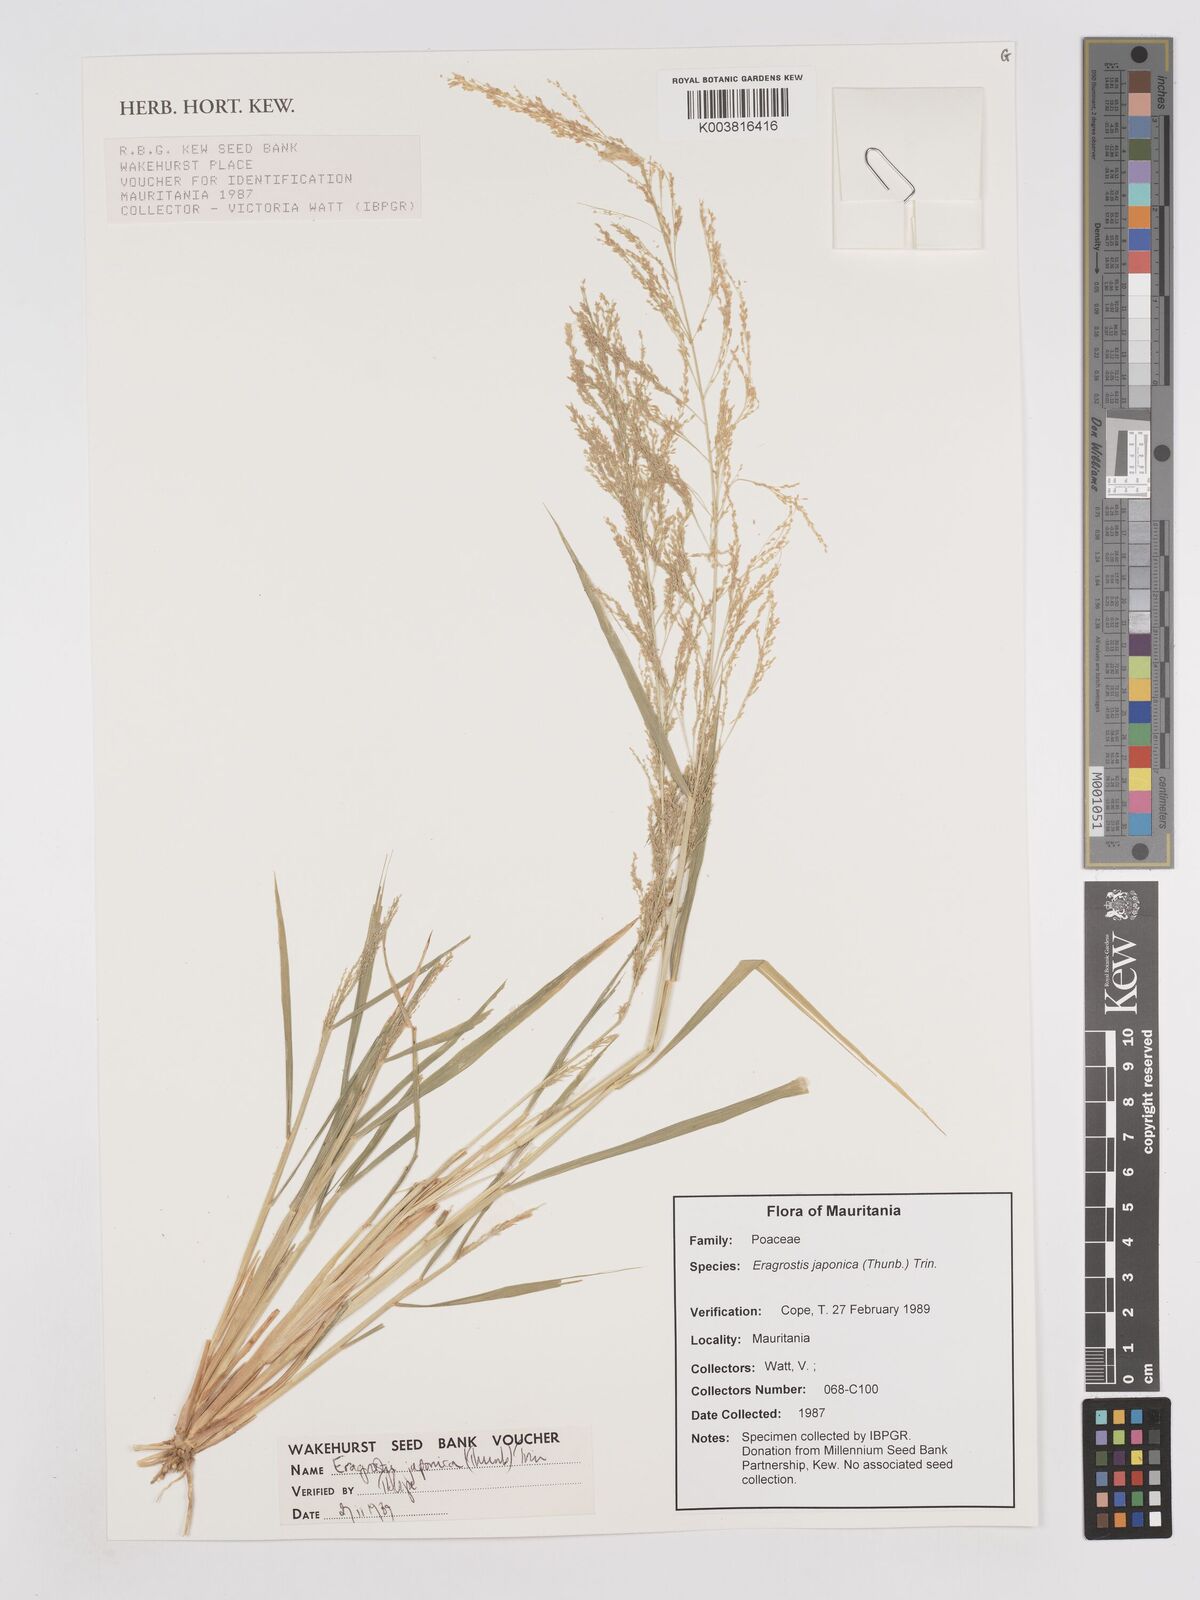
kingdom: Plantae
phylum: Tracheophyta
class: Liliopsida
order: Poales
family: Poaceae
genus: Eragrostis
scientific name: Eragrostis japonica
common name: Pond lovegrass
